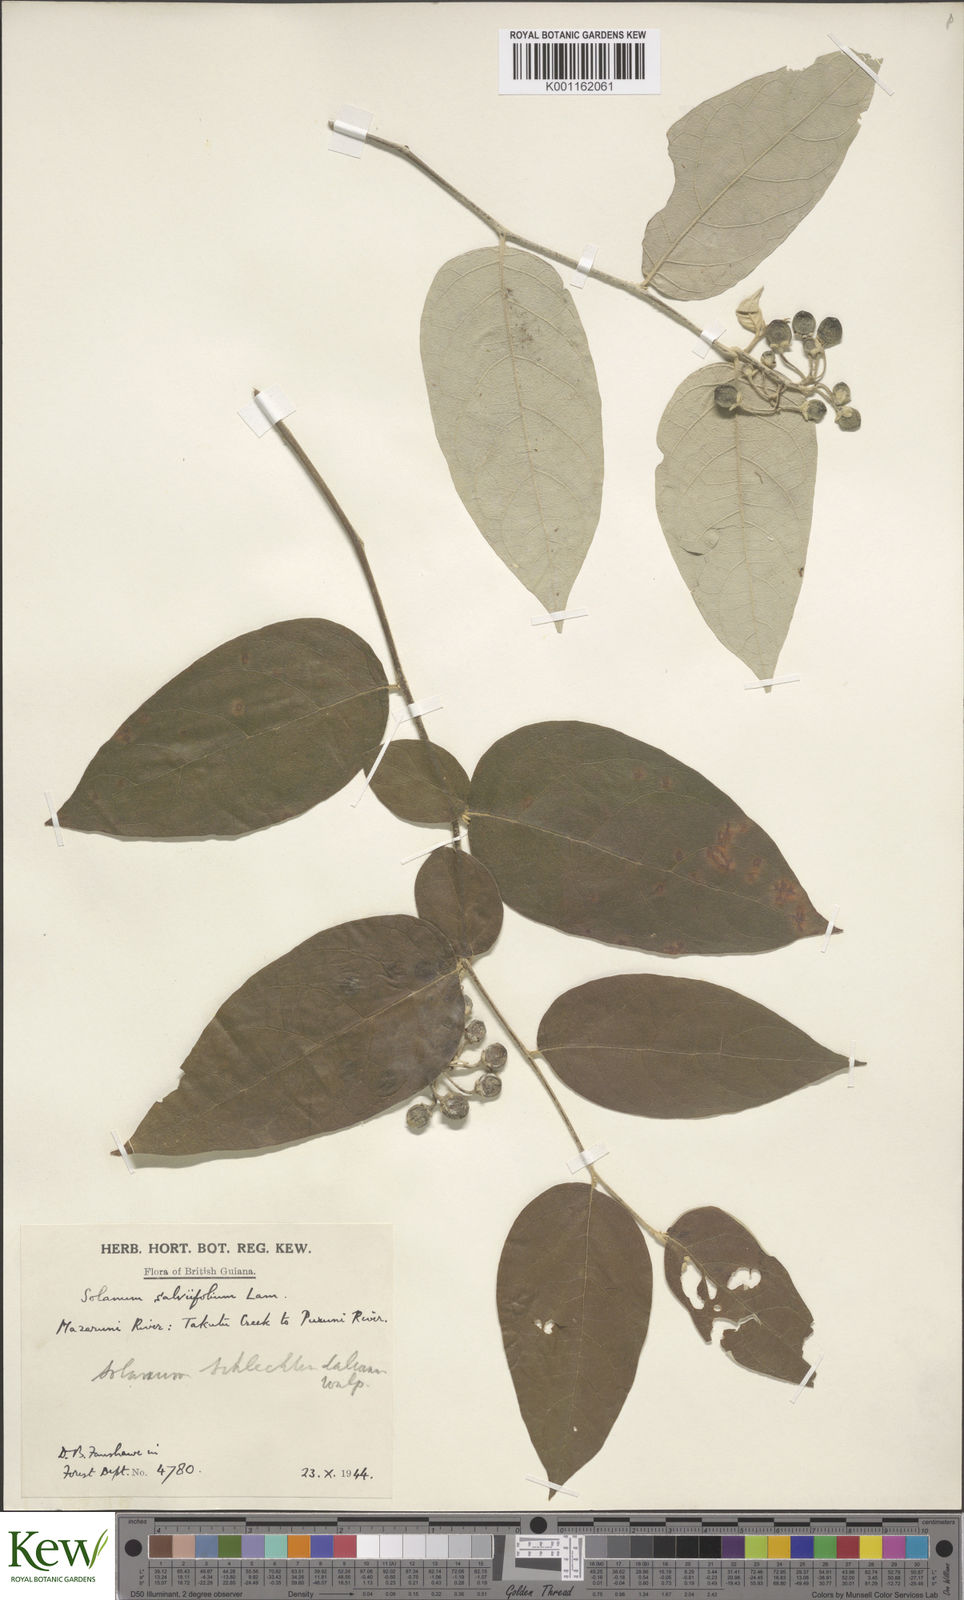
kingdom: Plantae
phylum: Tracheophyta
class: Magnoliopsida
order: Solanales
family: Solanaceae
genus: Solanum
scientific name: Solanum schlechtendalianum
